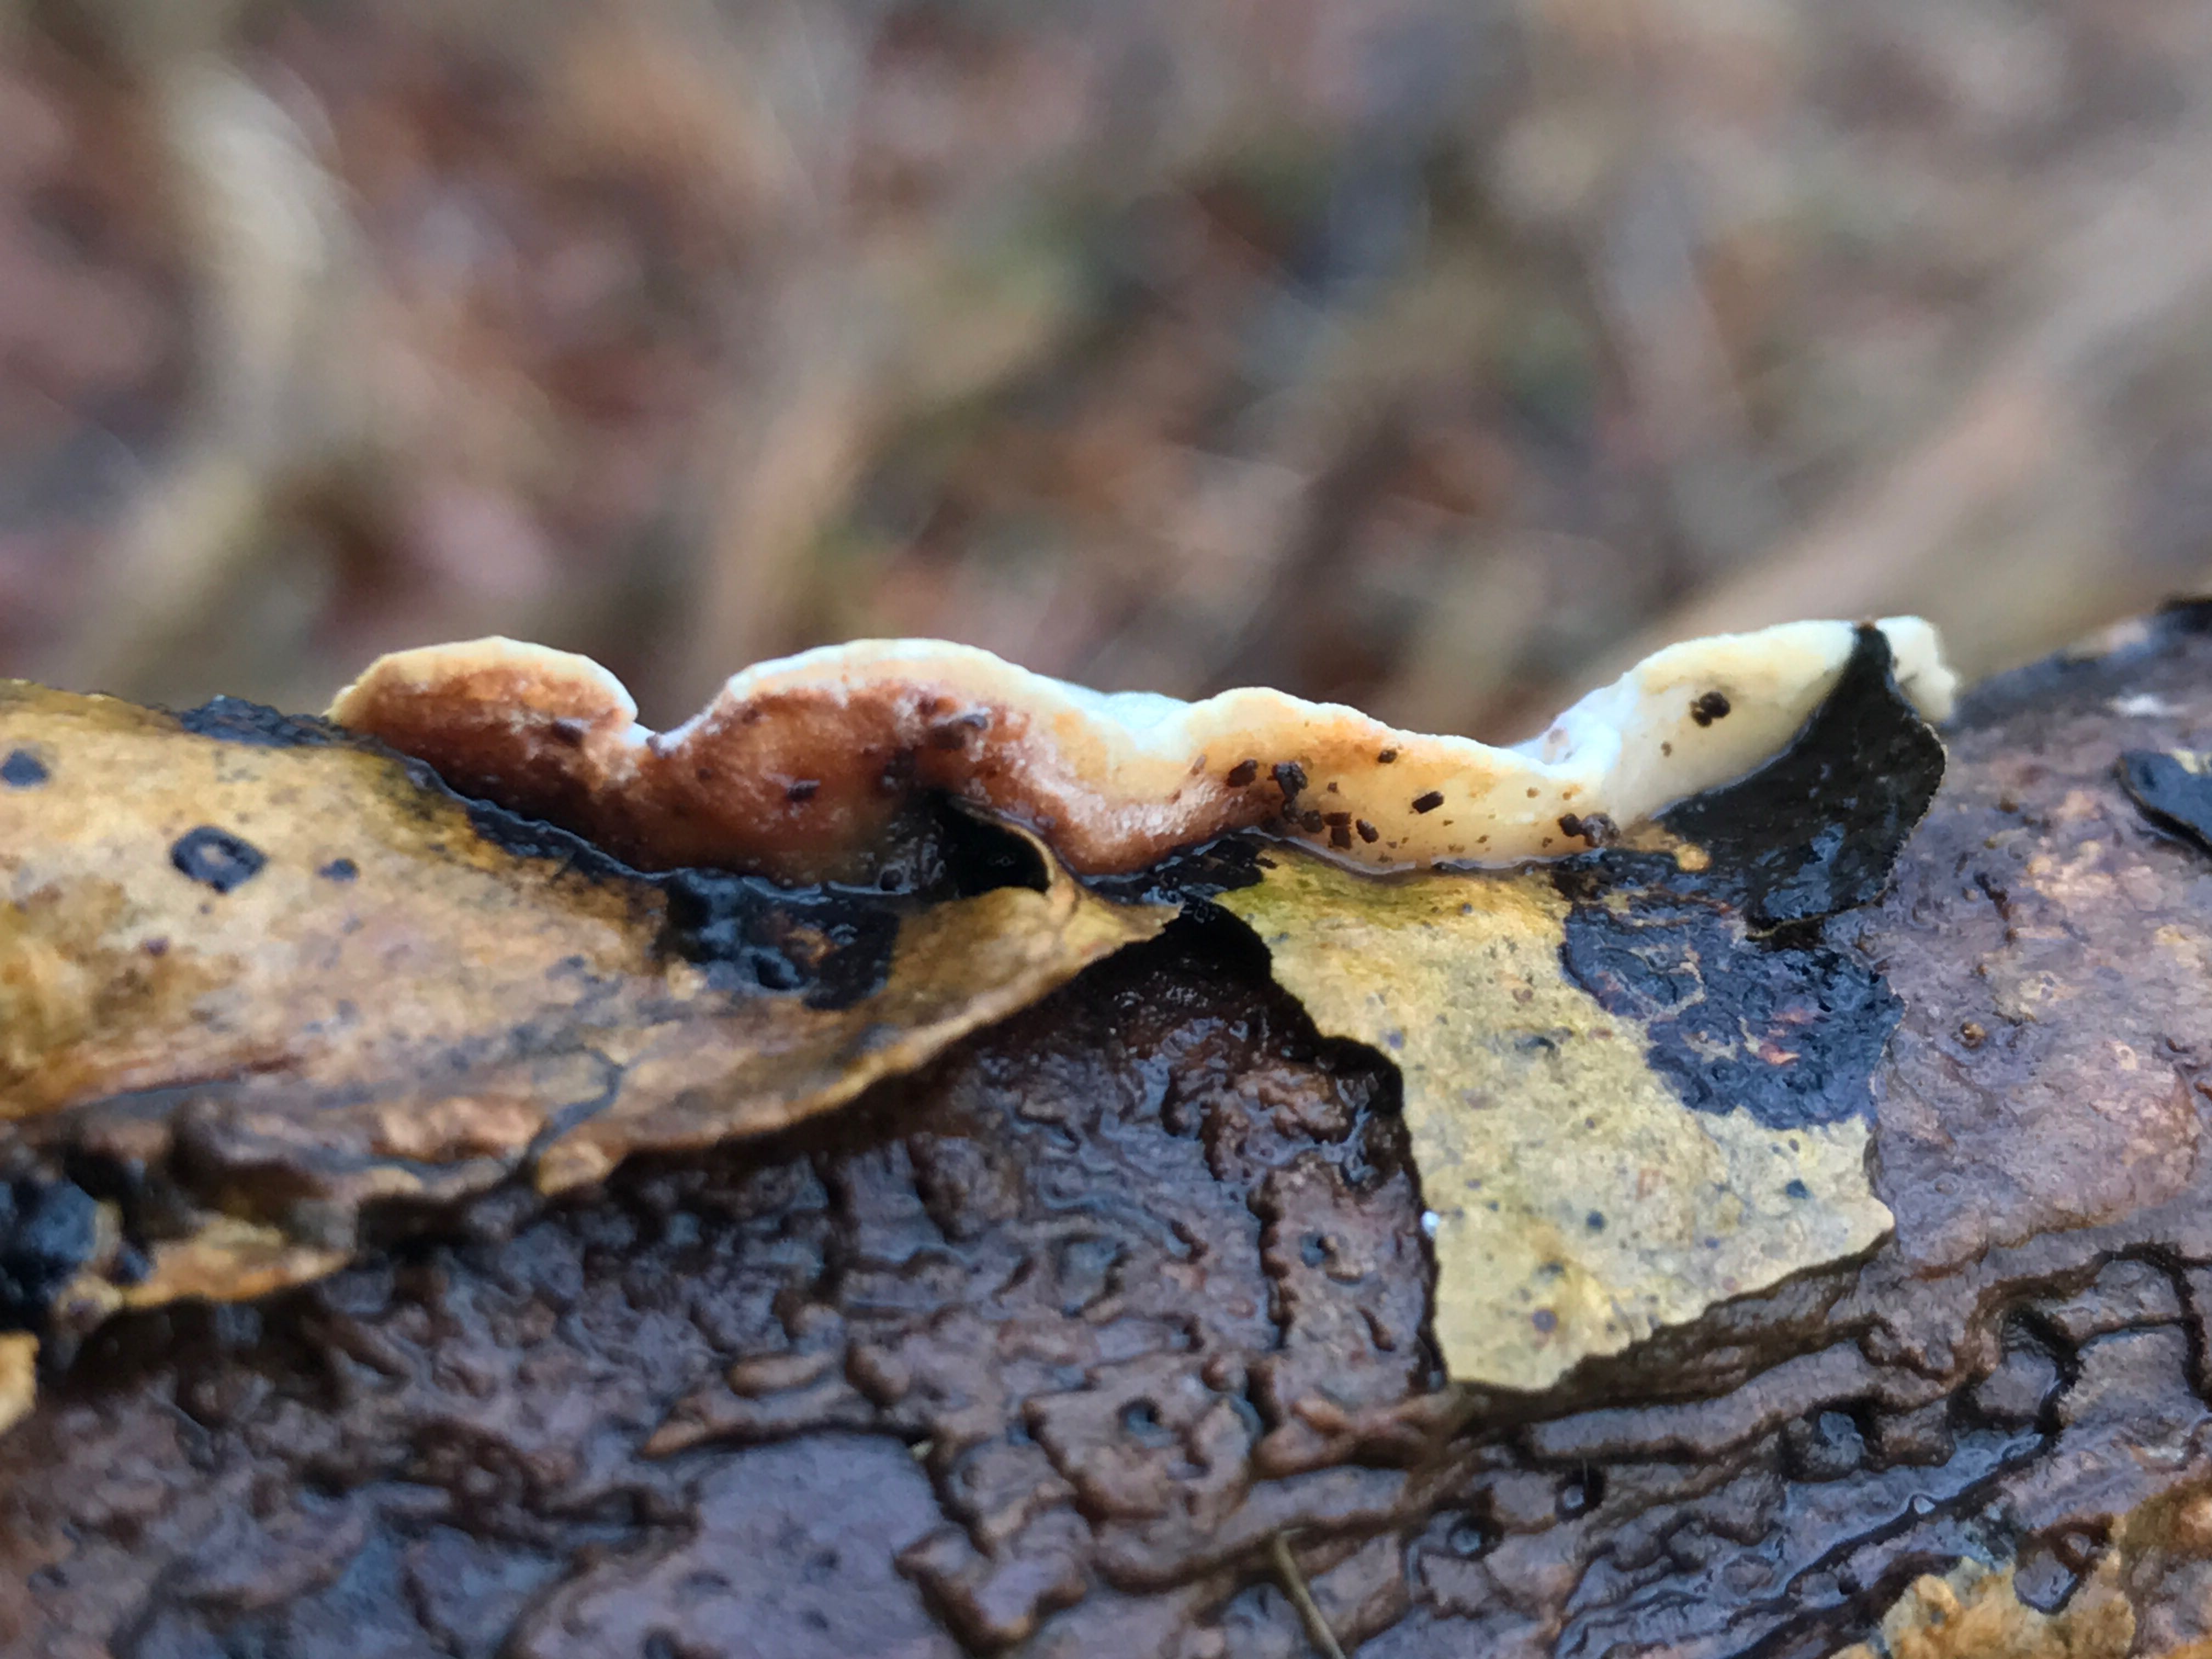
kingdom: Fungi
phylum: Basidiomycota
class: Agaricomycetes
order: Polyporales
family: Incrustoporiaceae
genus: Skeletocutis
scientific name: Skeletocutis nemoralis
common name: stor krystalporesvamp
